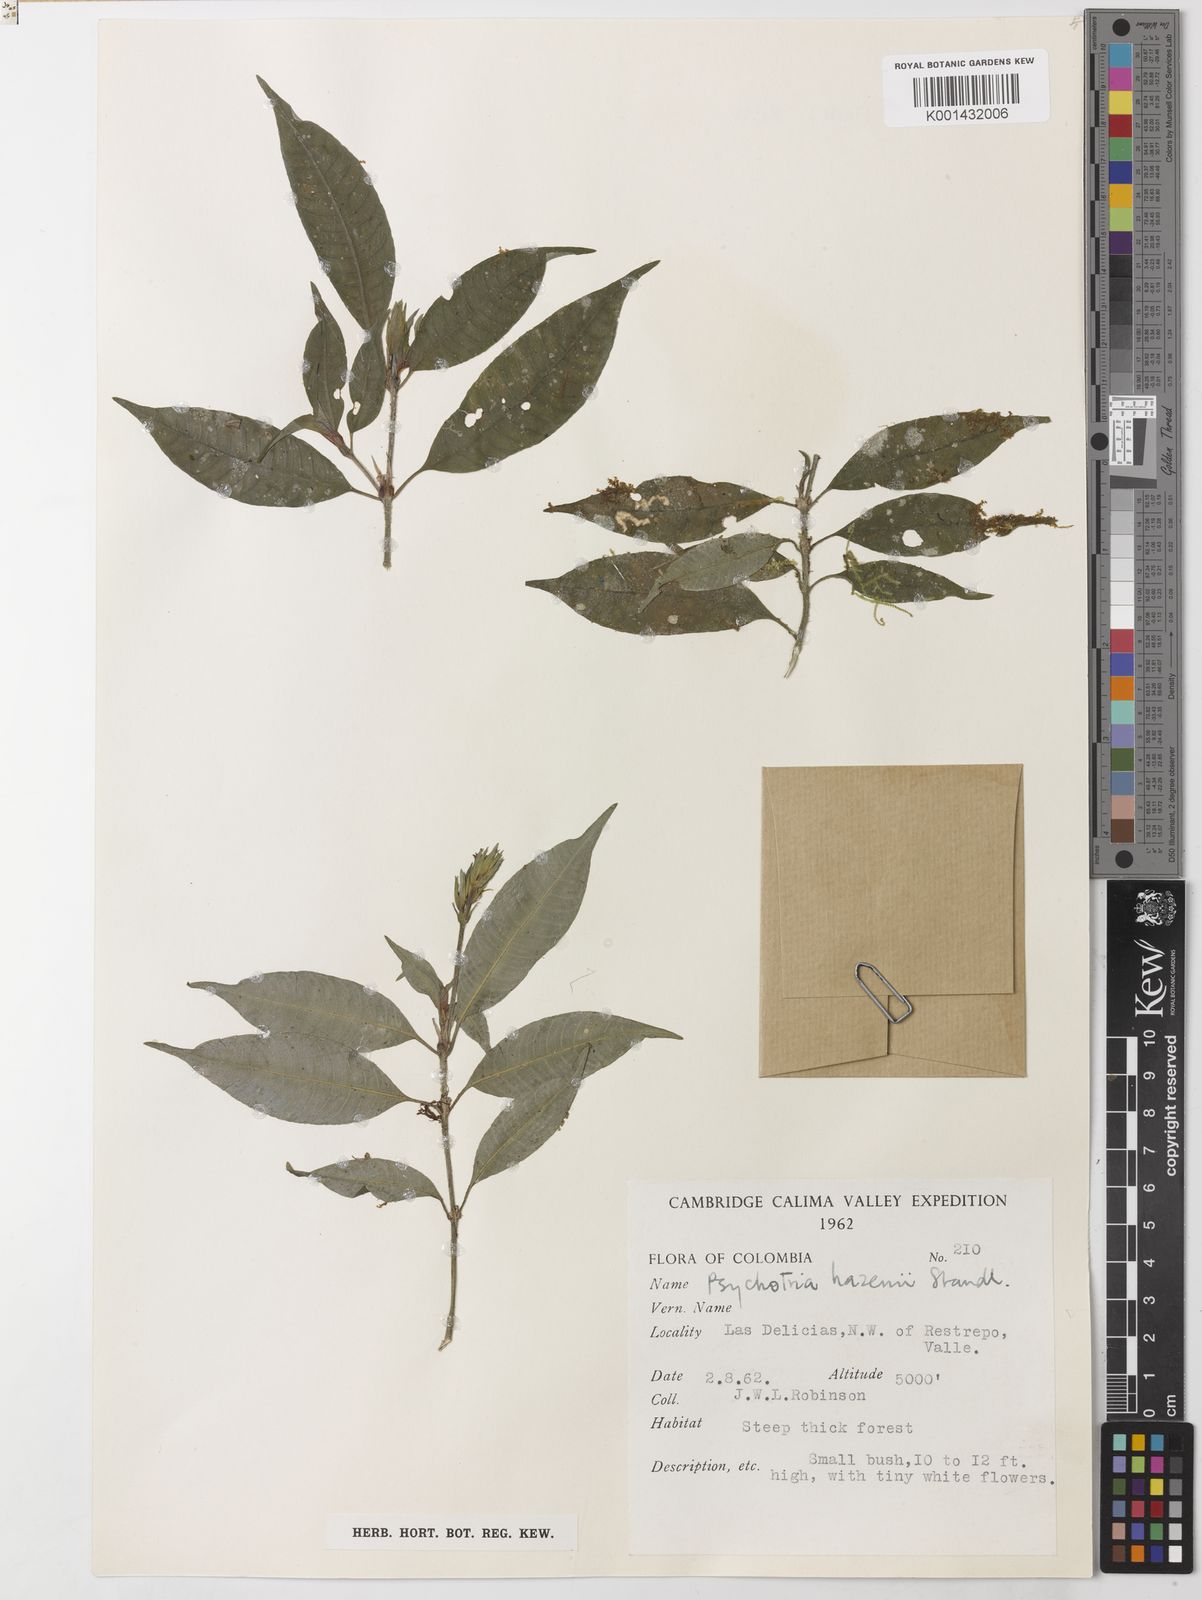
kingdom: Plantae
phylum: Tracheophyta
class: Magnoliopsida
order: Gentianales
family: Rubiaceae
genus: Palicourea
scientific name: Palicourea hazenii
